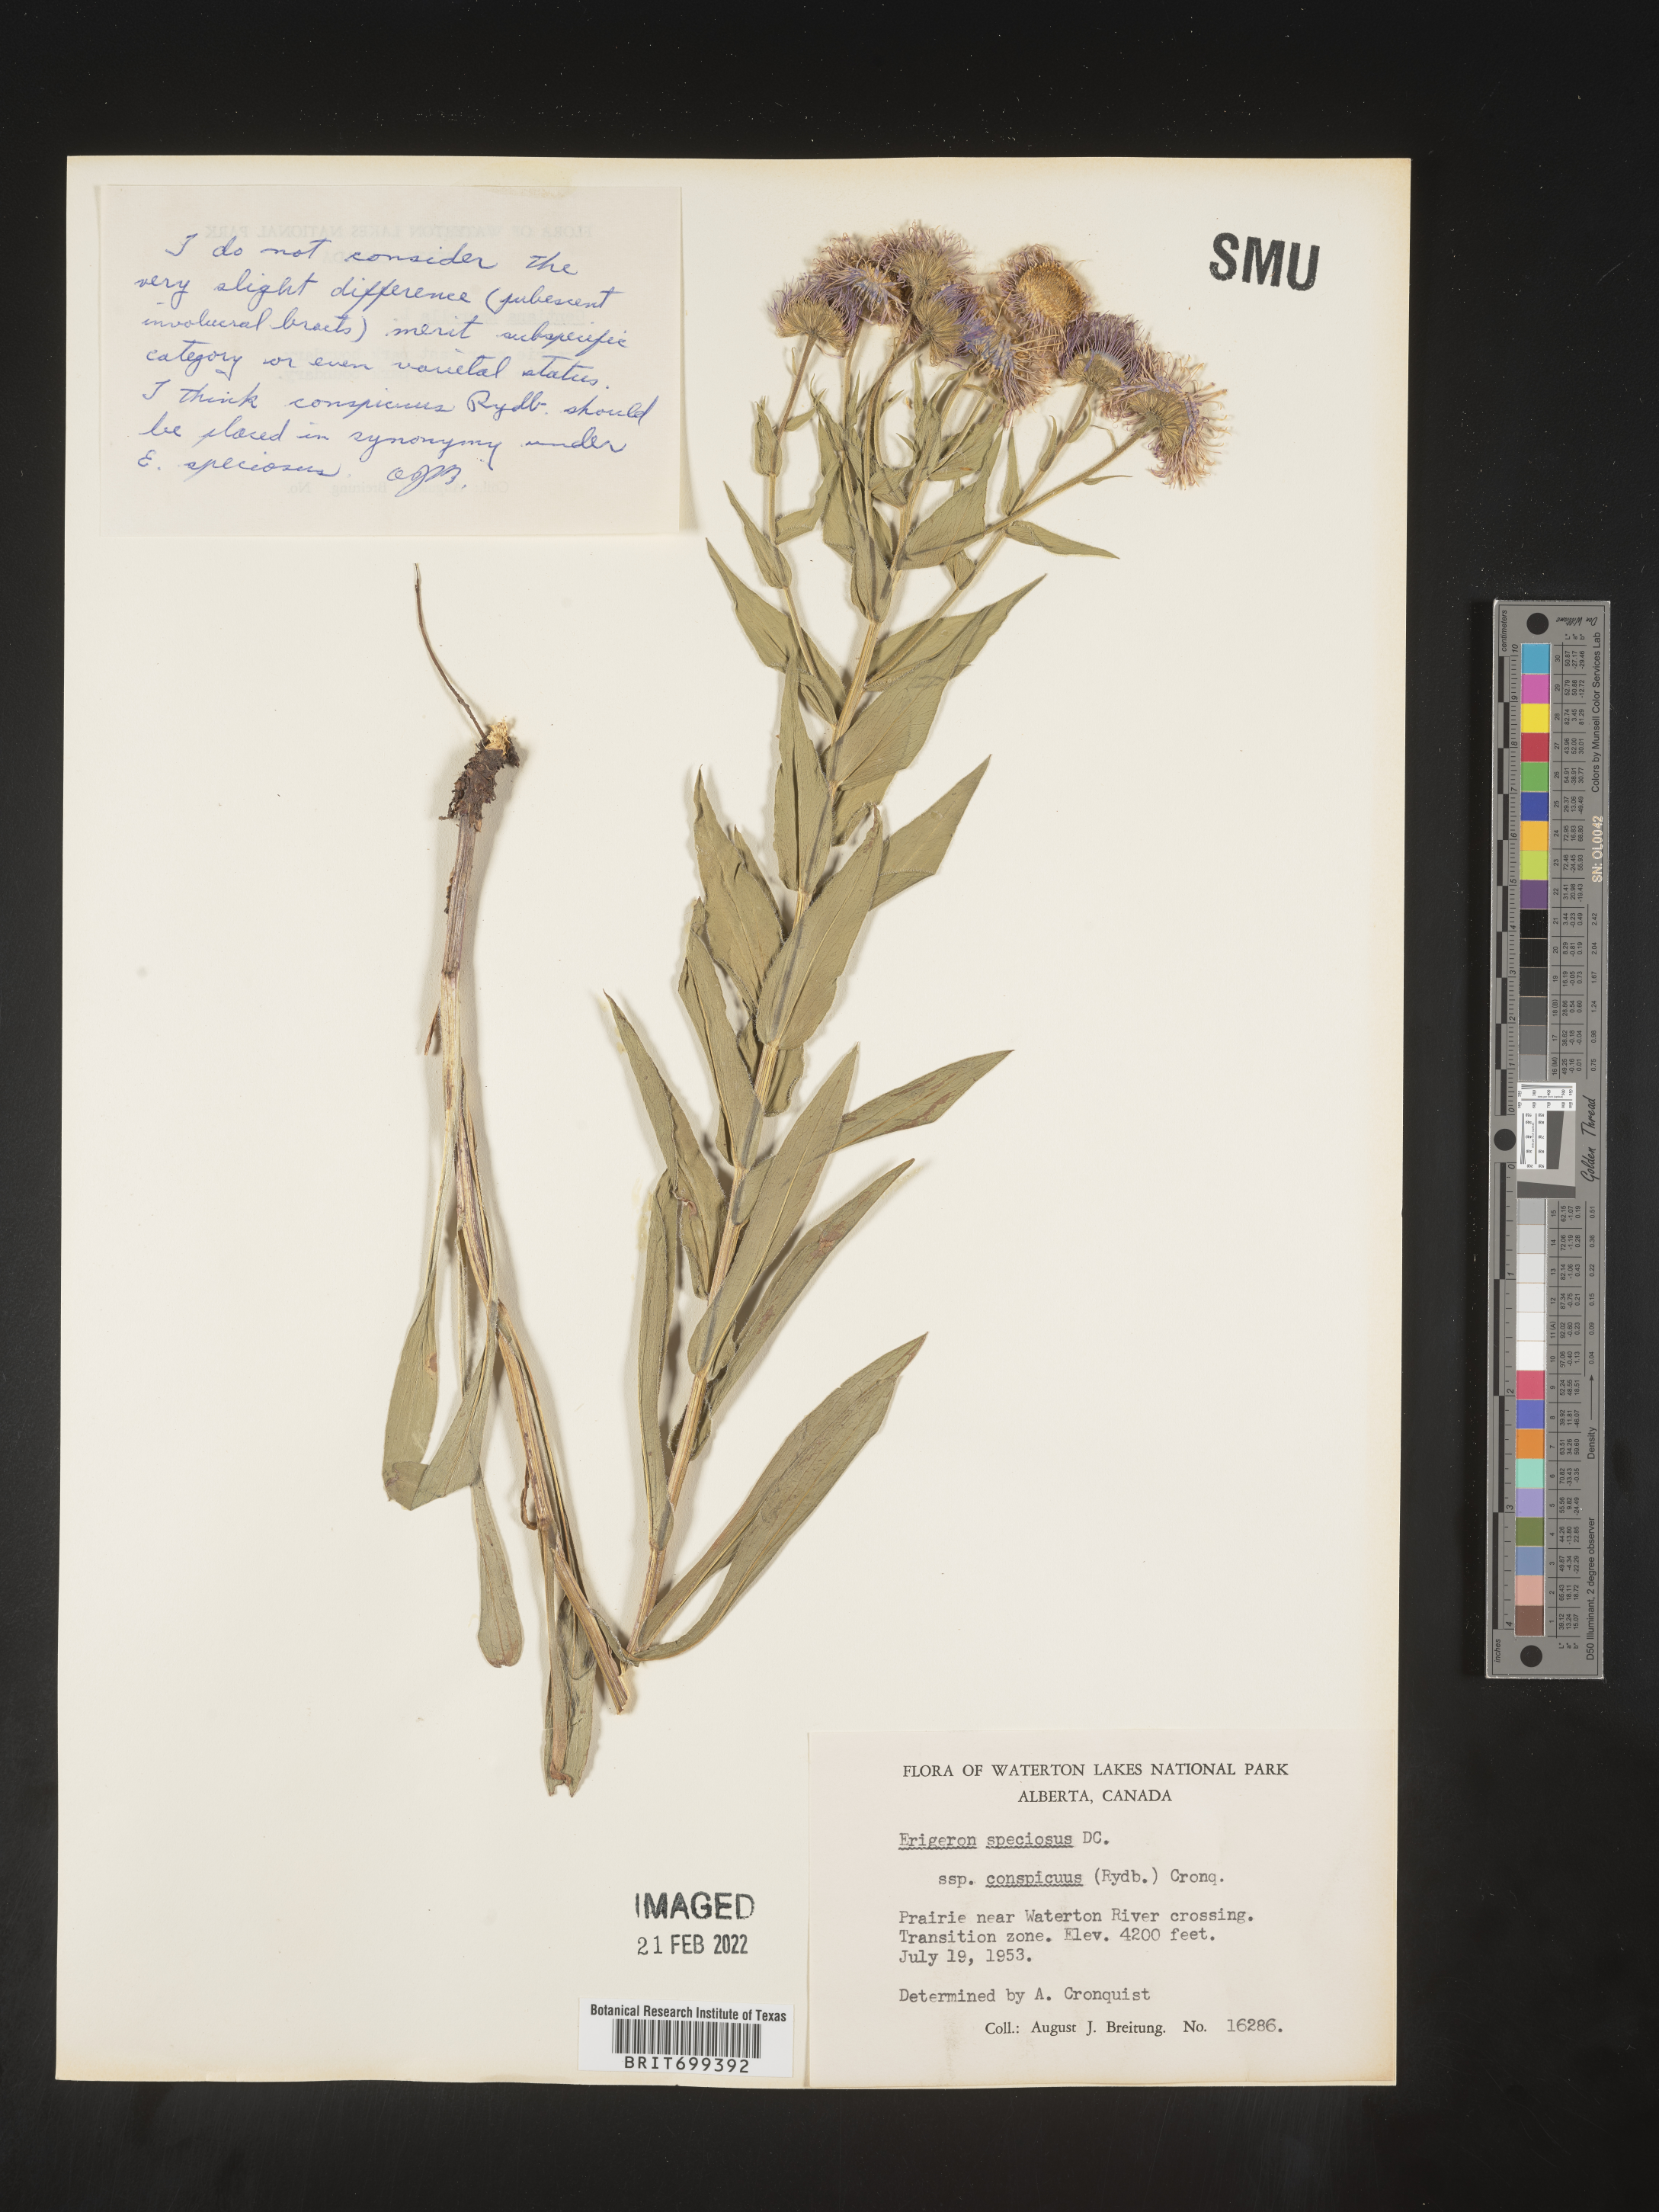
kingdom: Plantae
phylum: Tracheophyta
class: Magnoliopsida
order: Asterales
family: Asteraceae
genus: Erigeron
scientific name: Erigeron speciosus
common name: Aspen fleabane
